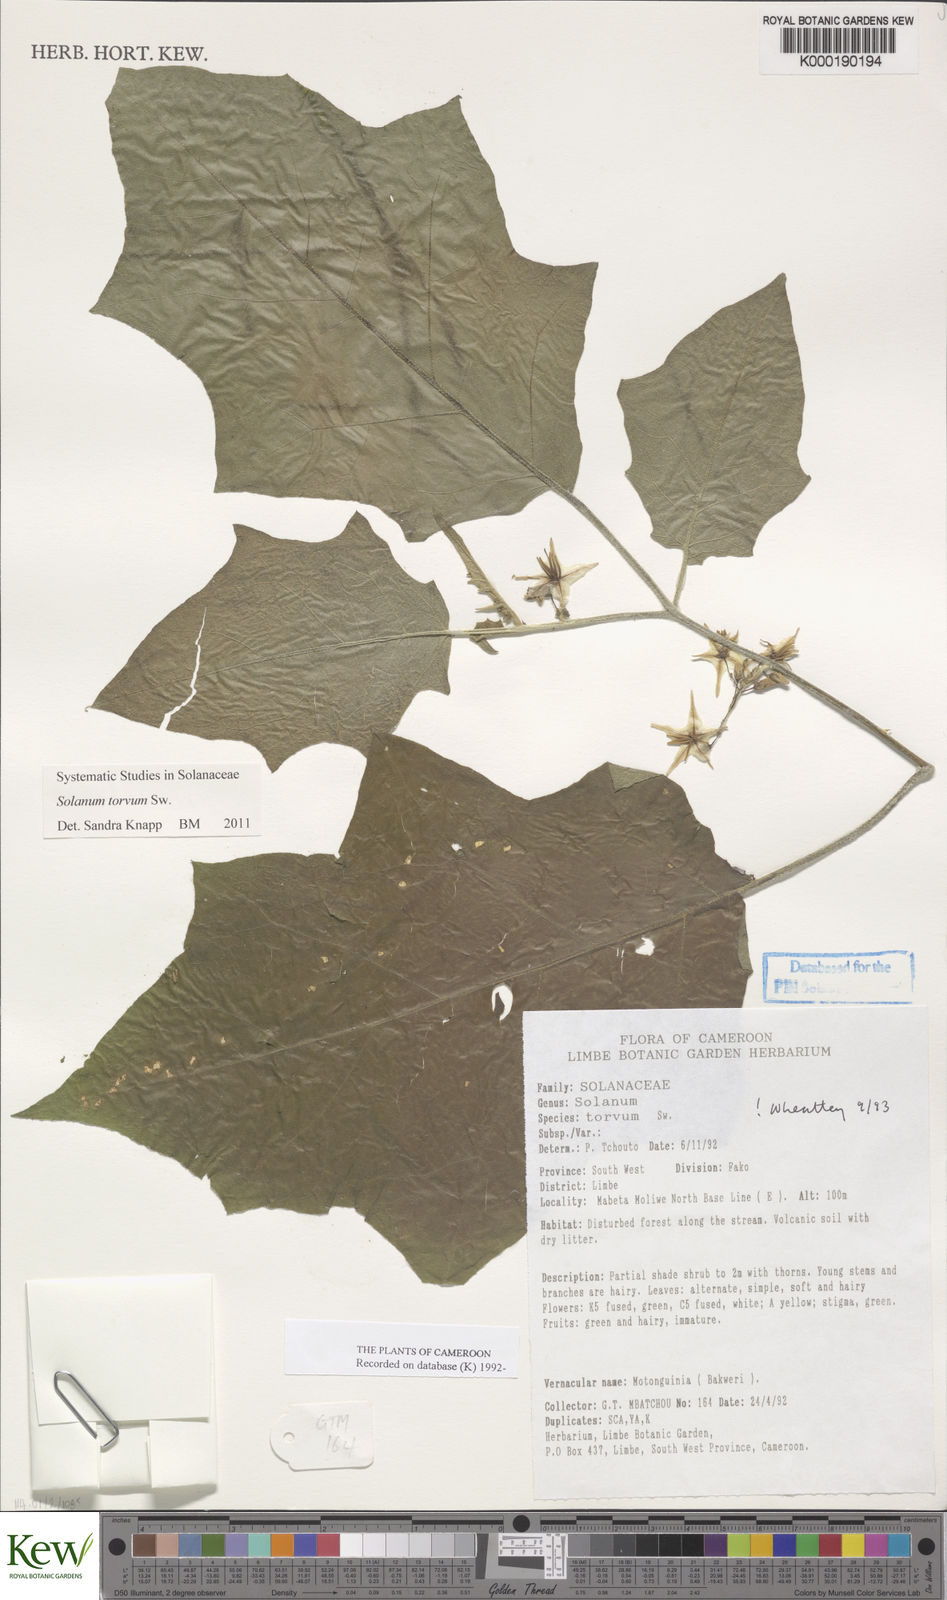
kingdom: Plantae
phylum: Tracheophyta
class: Magnoliopsida
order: Solanales
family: Solanaceae
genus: Solanum
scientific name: Solanum torvum
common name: Turkey berry
